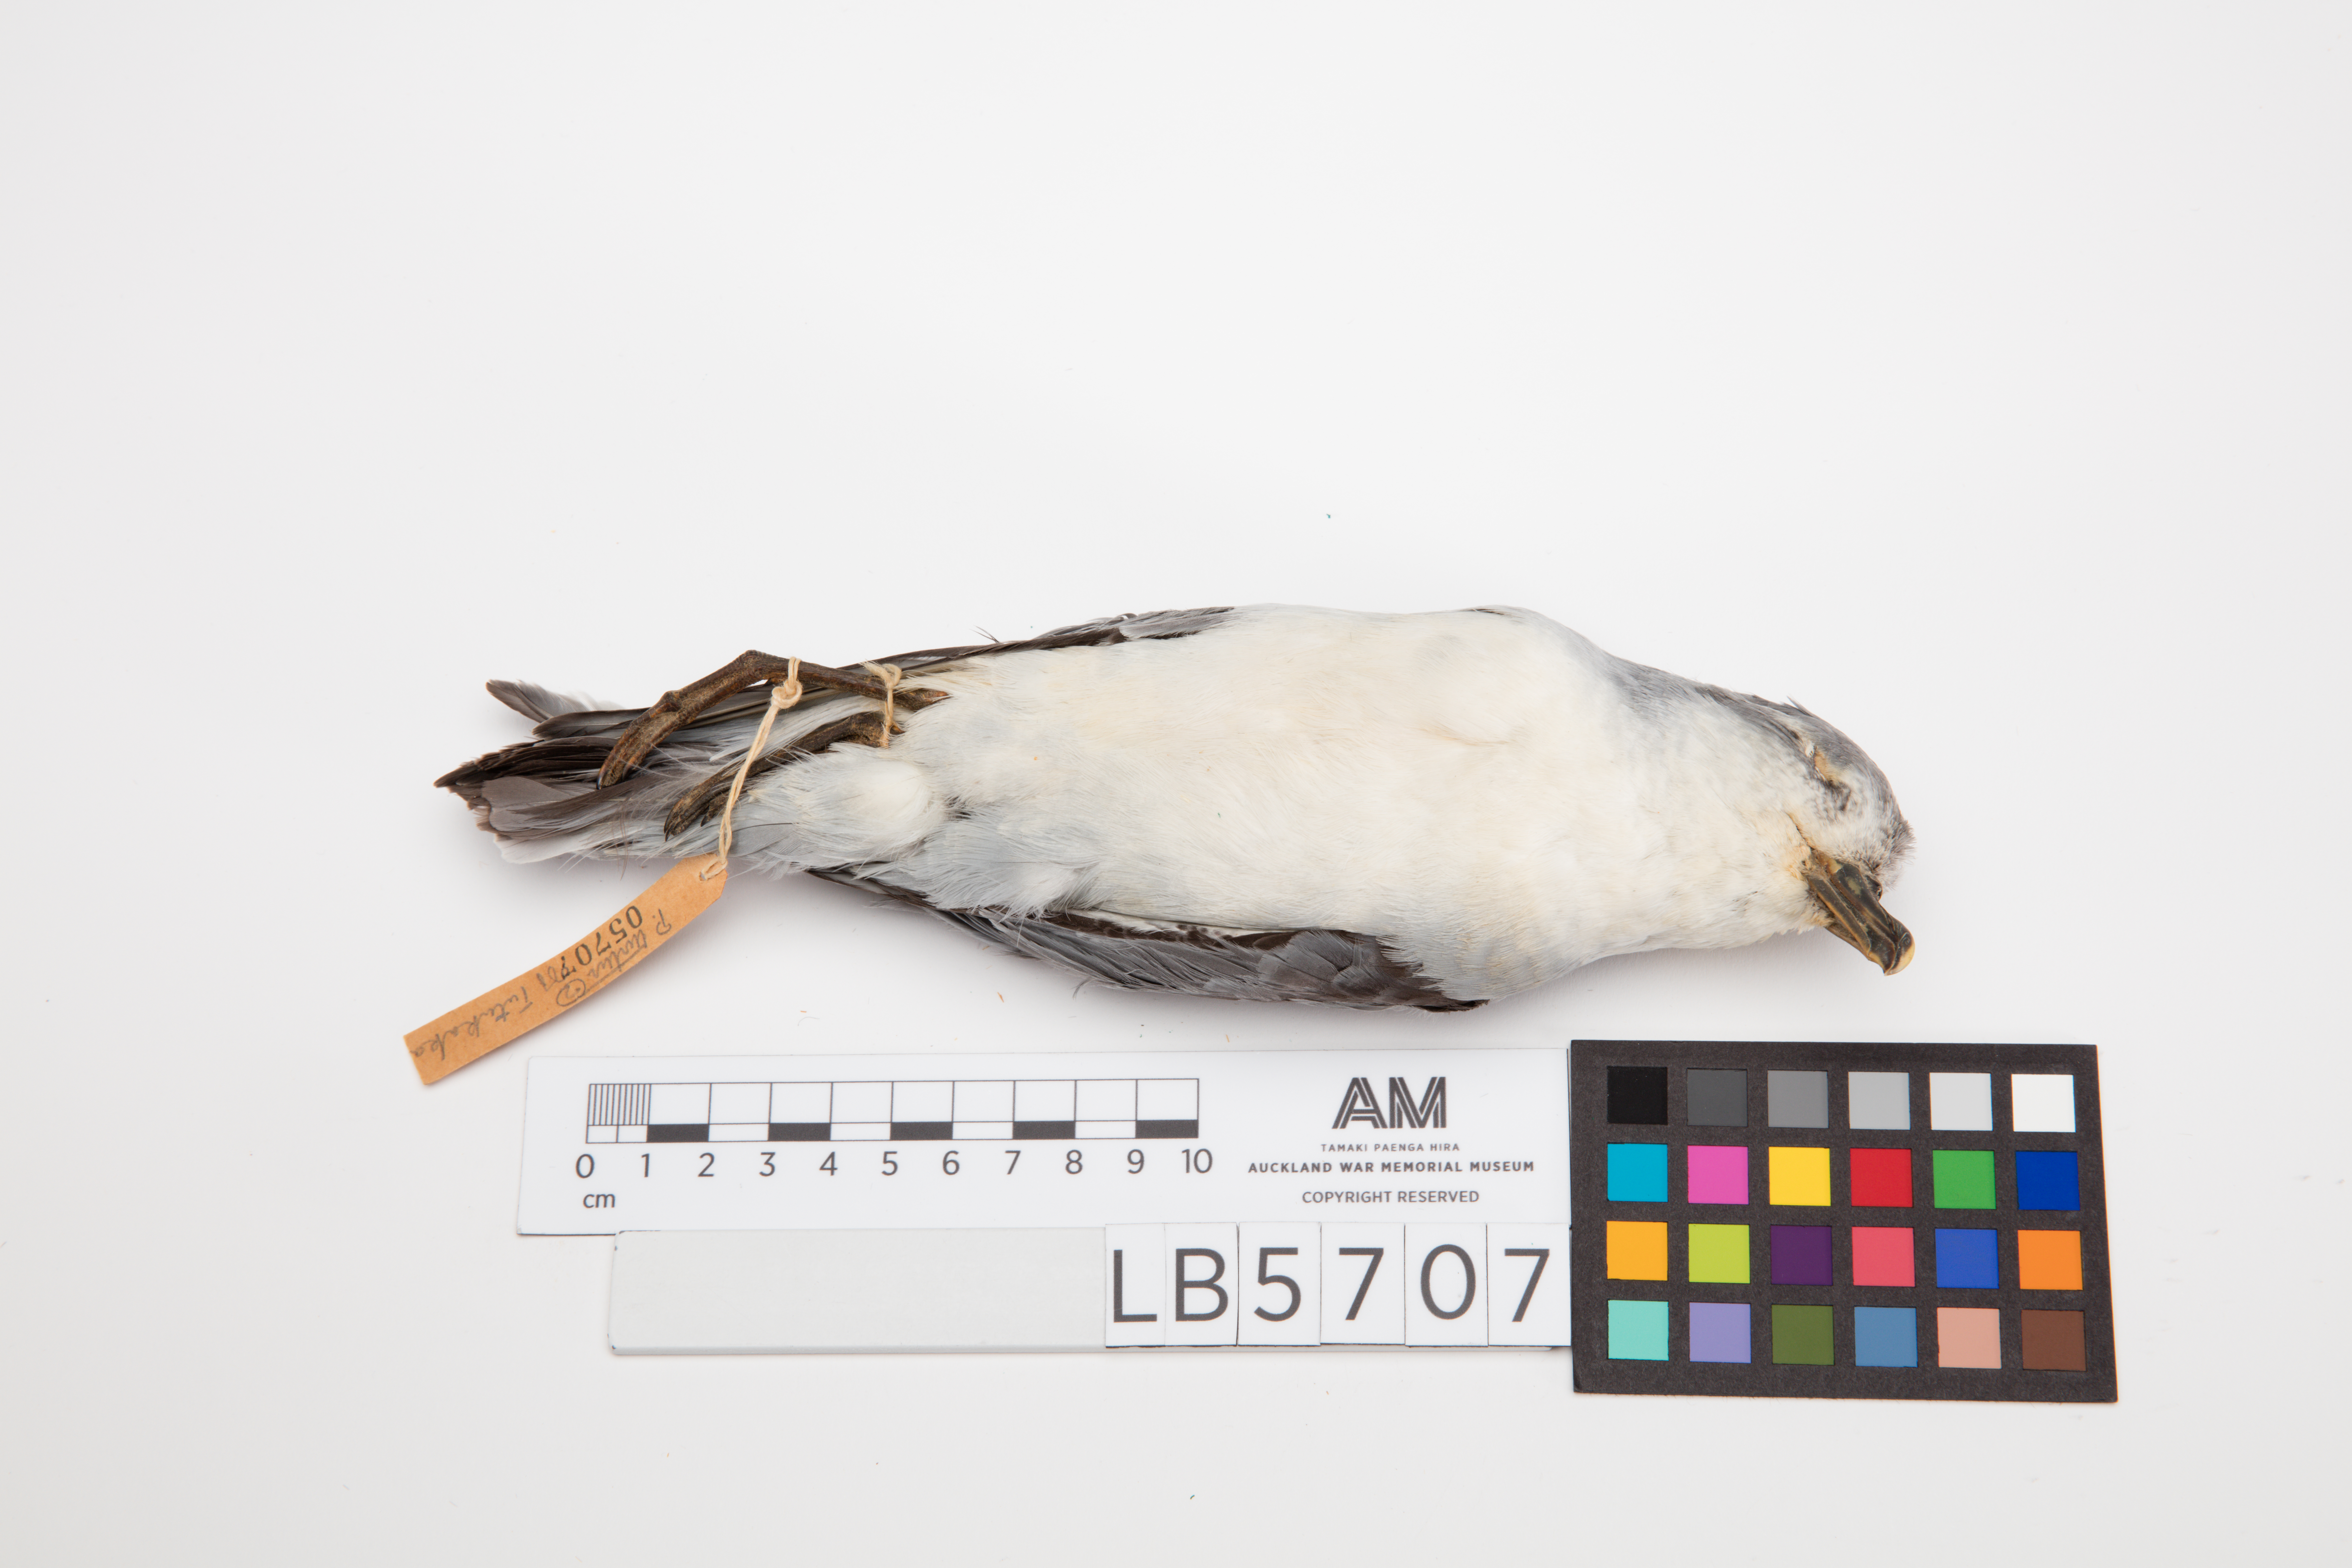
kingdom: Animalia
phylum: Chordata
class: Aves
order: Procellariiformes
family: Procellariidae
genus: Pachyptila
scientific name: Pachyptila turtur
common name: Fairy prion
